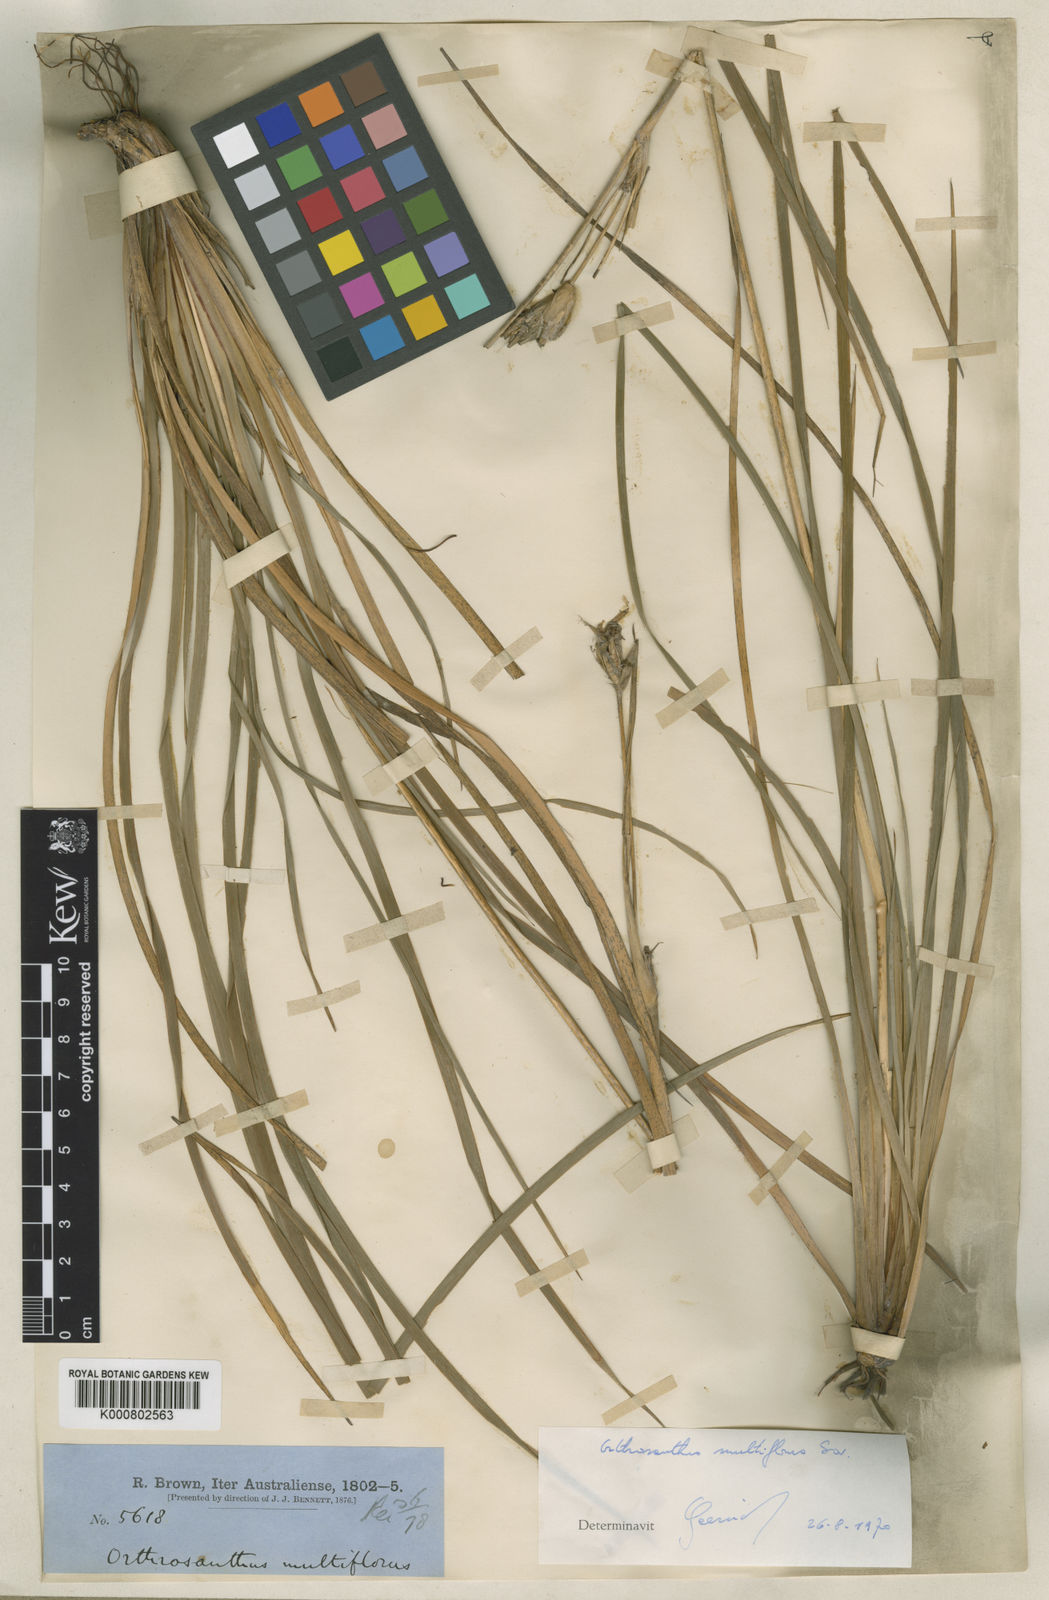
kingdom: Plantae
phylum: Tracheophyta
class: Liliopsida
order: Asparagales
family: Iridaceae
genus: Orthrosanthus
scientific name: Orthrosanthus multiflorus
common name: Morning-flag
